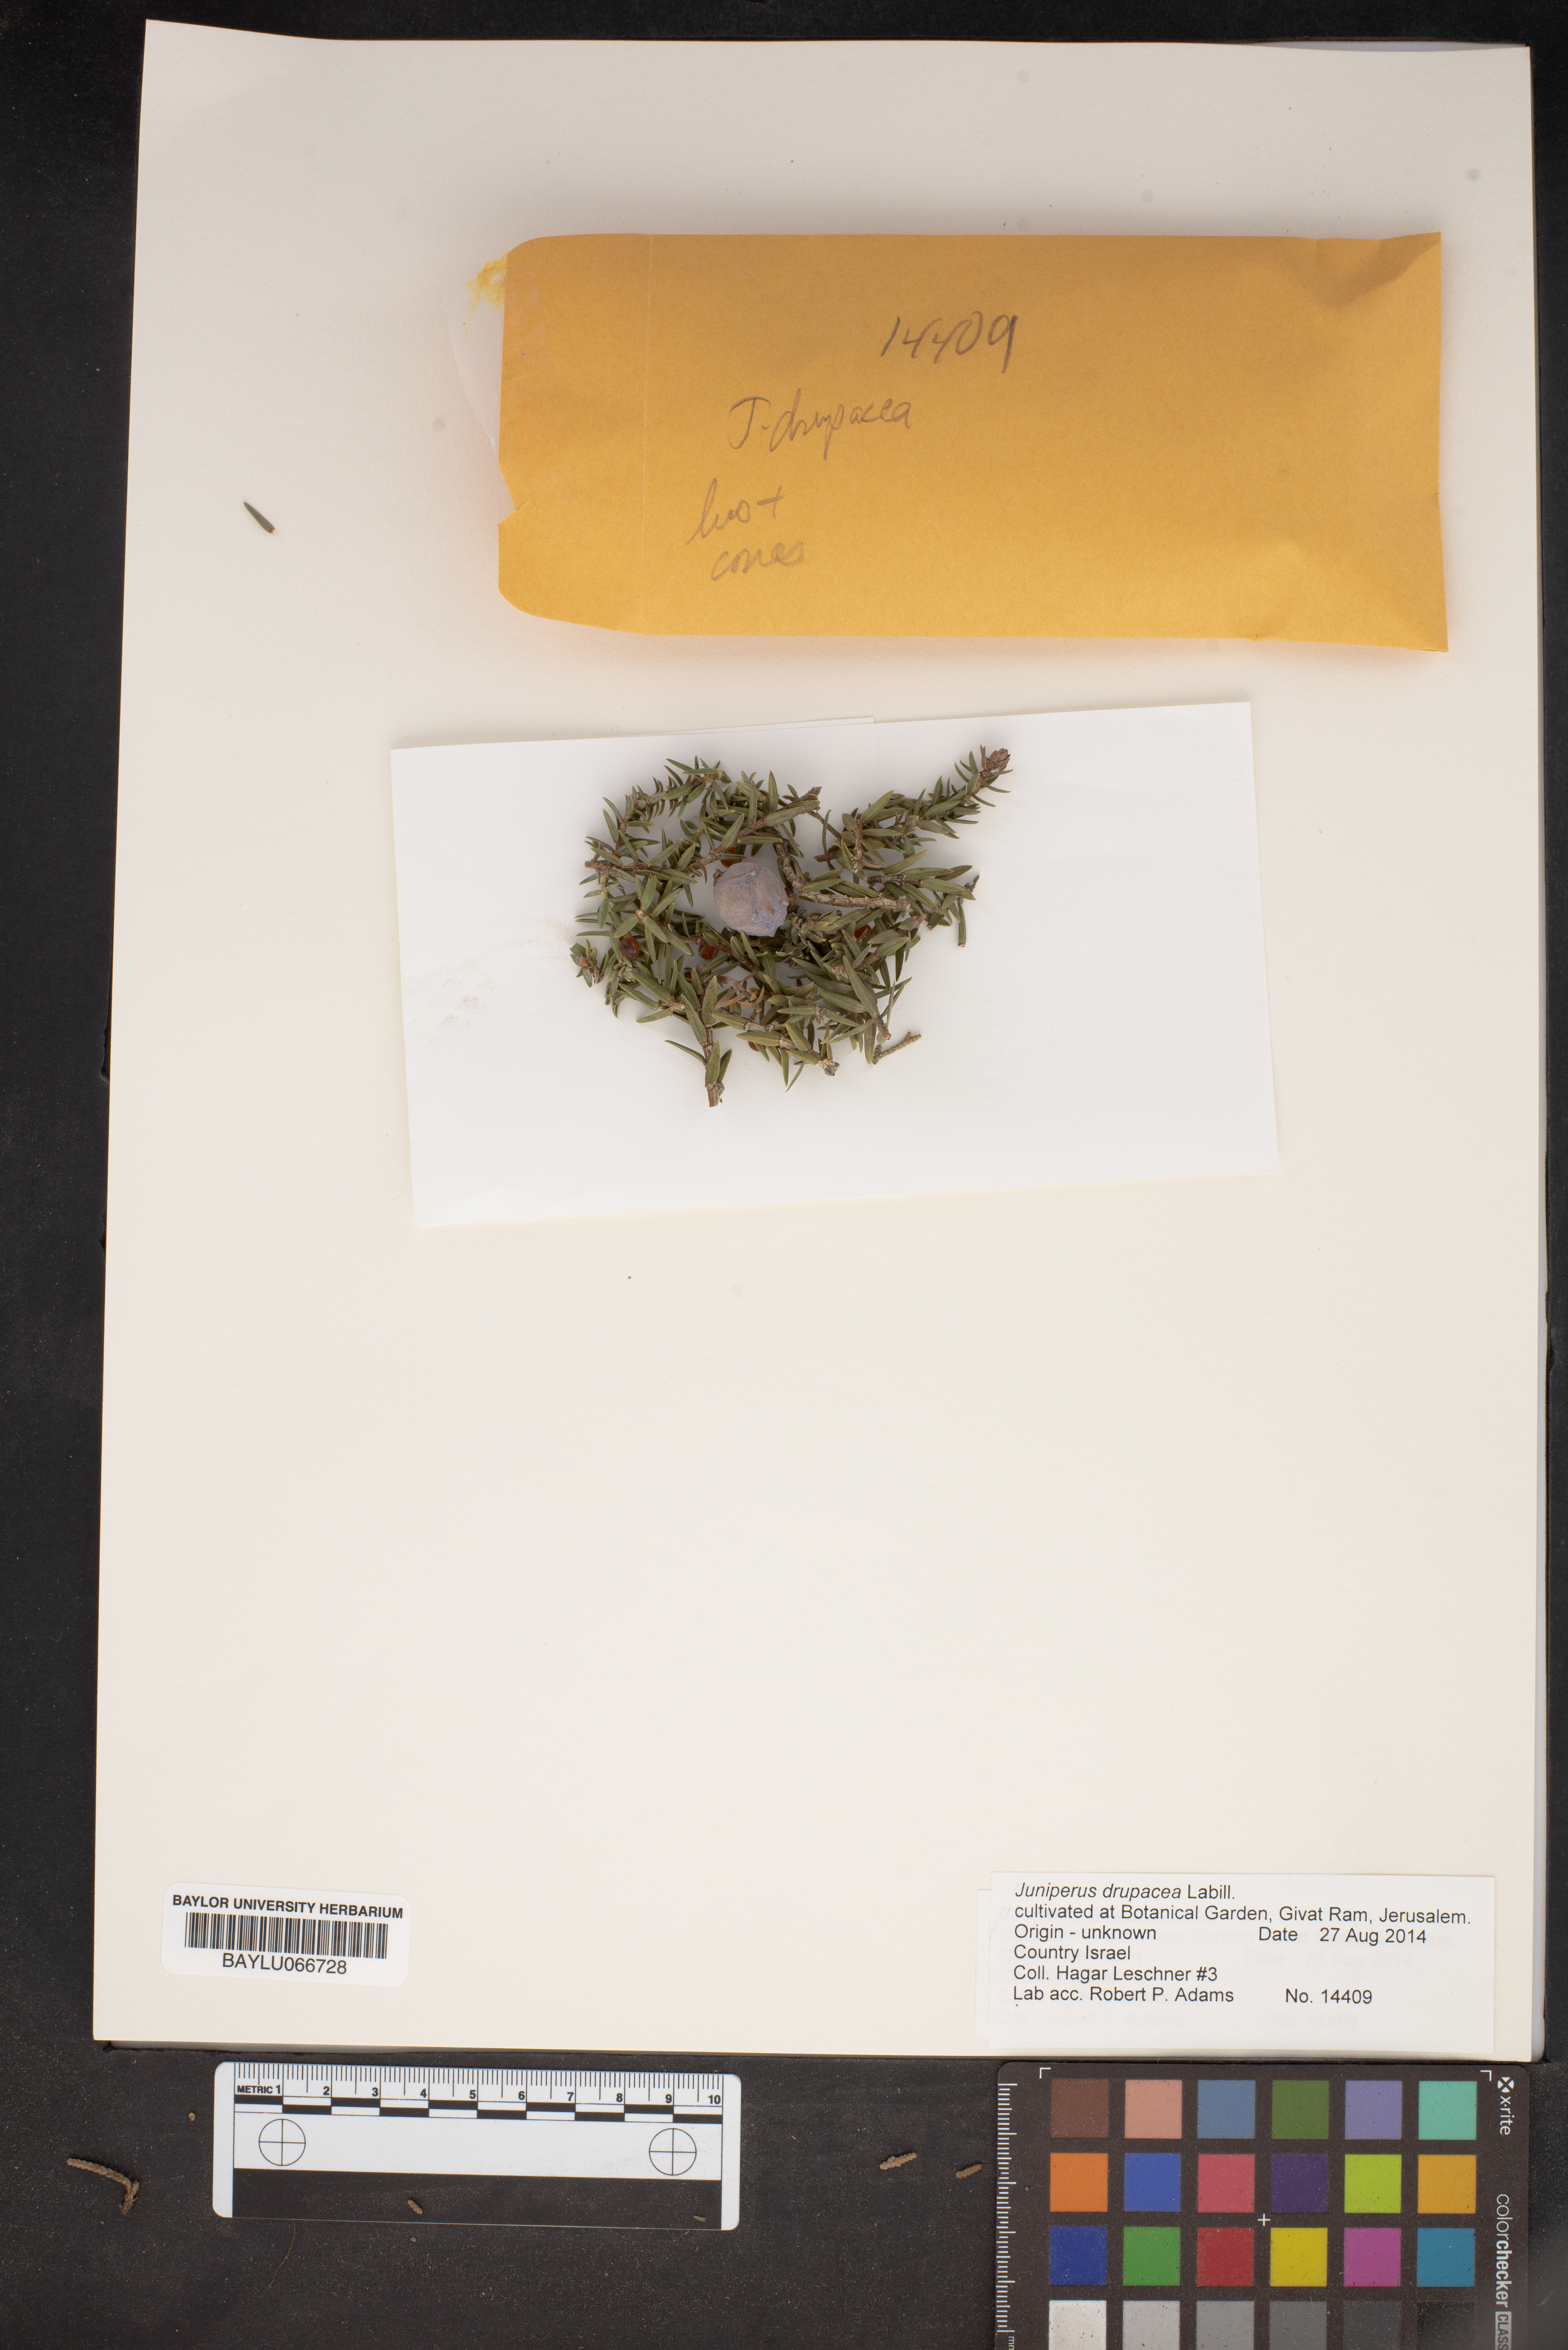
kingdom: Plantae
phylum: Tracheophyta
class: Pinopsida
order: Pinales
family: Cupressaceae
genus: Juniperus
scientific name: Juniperus drupacea
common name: Syrian juniper
